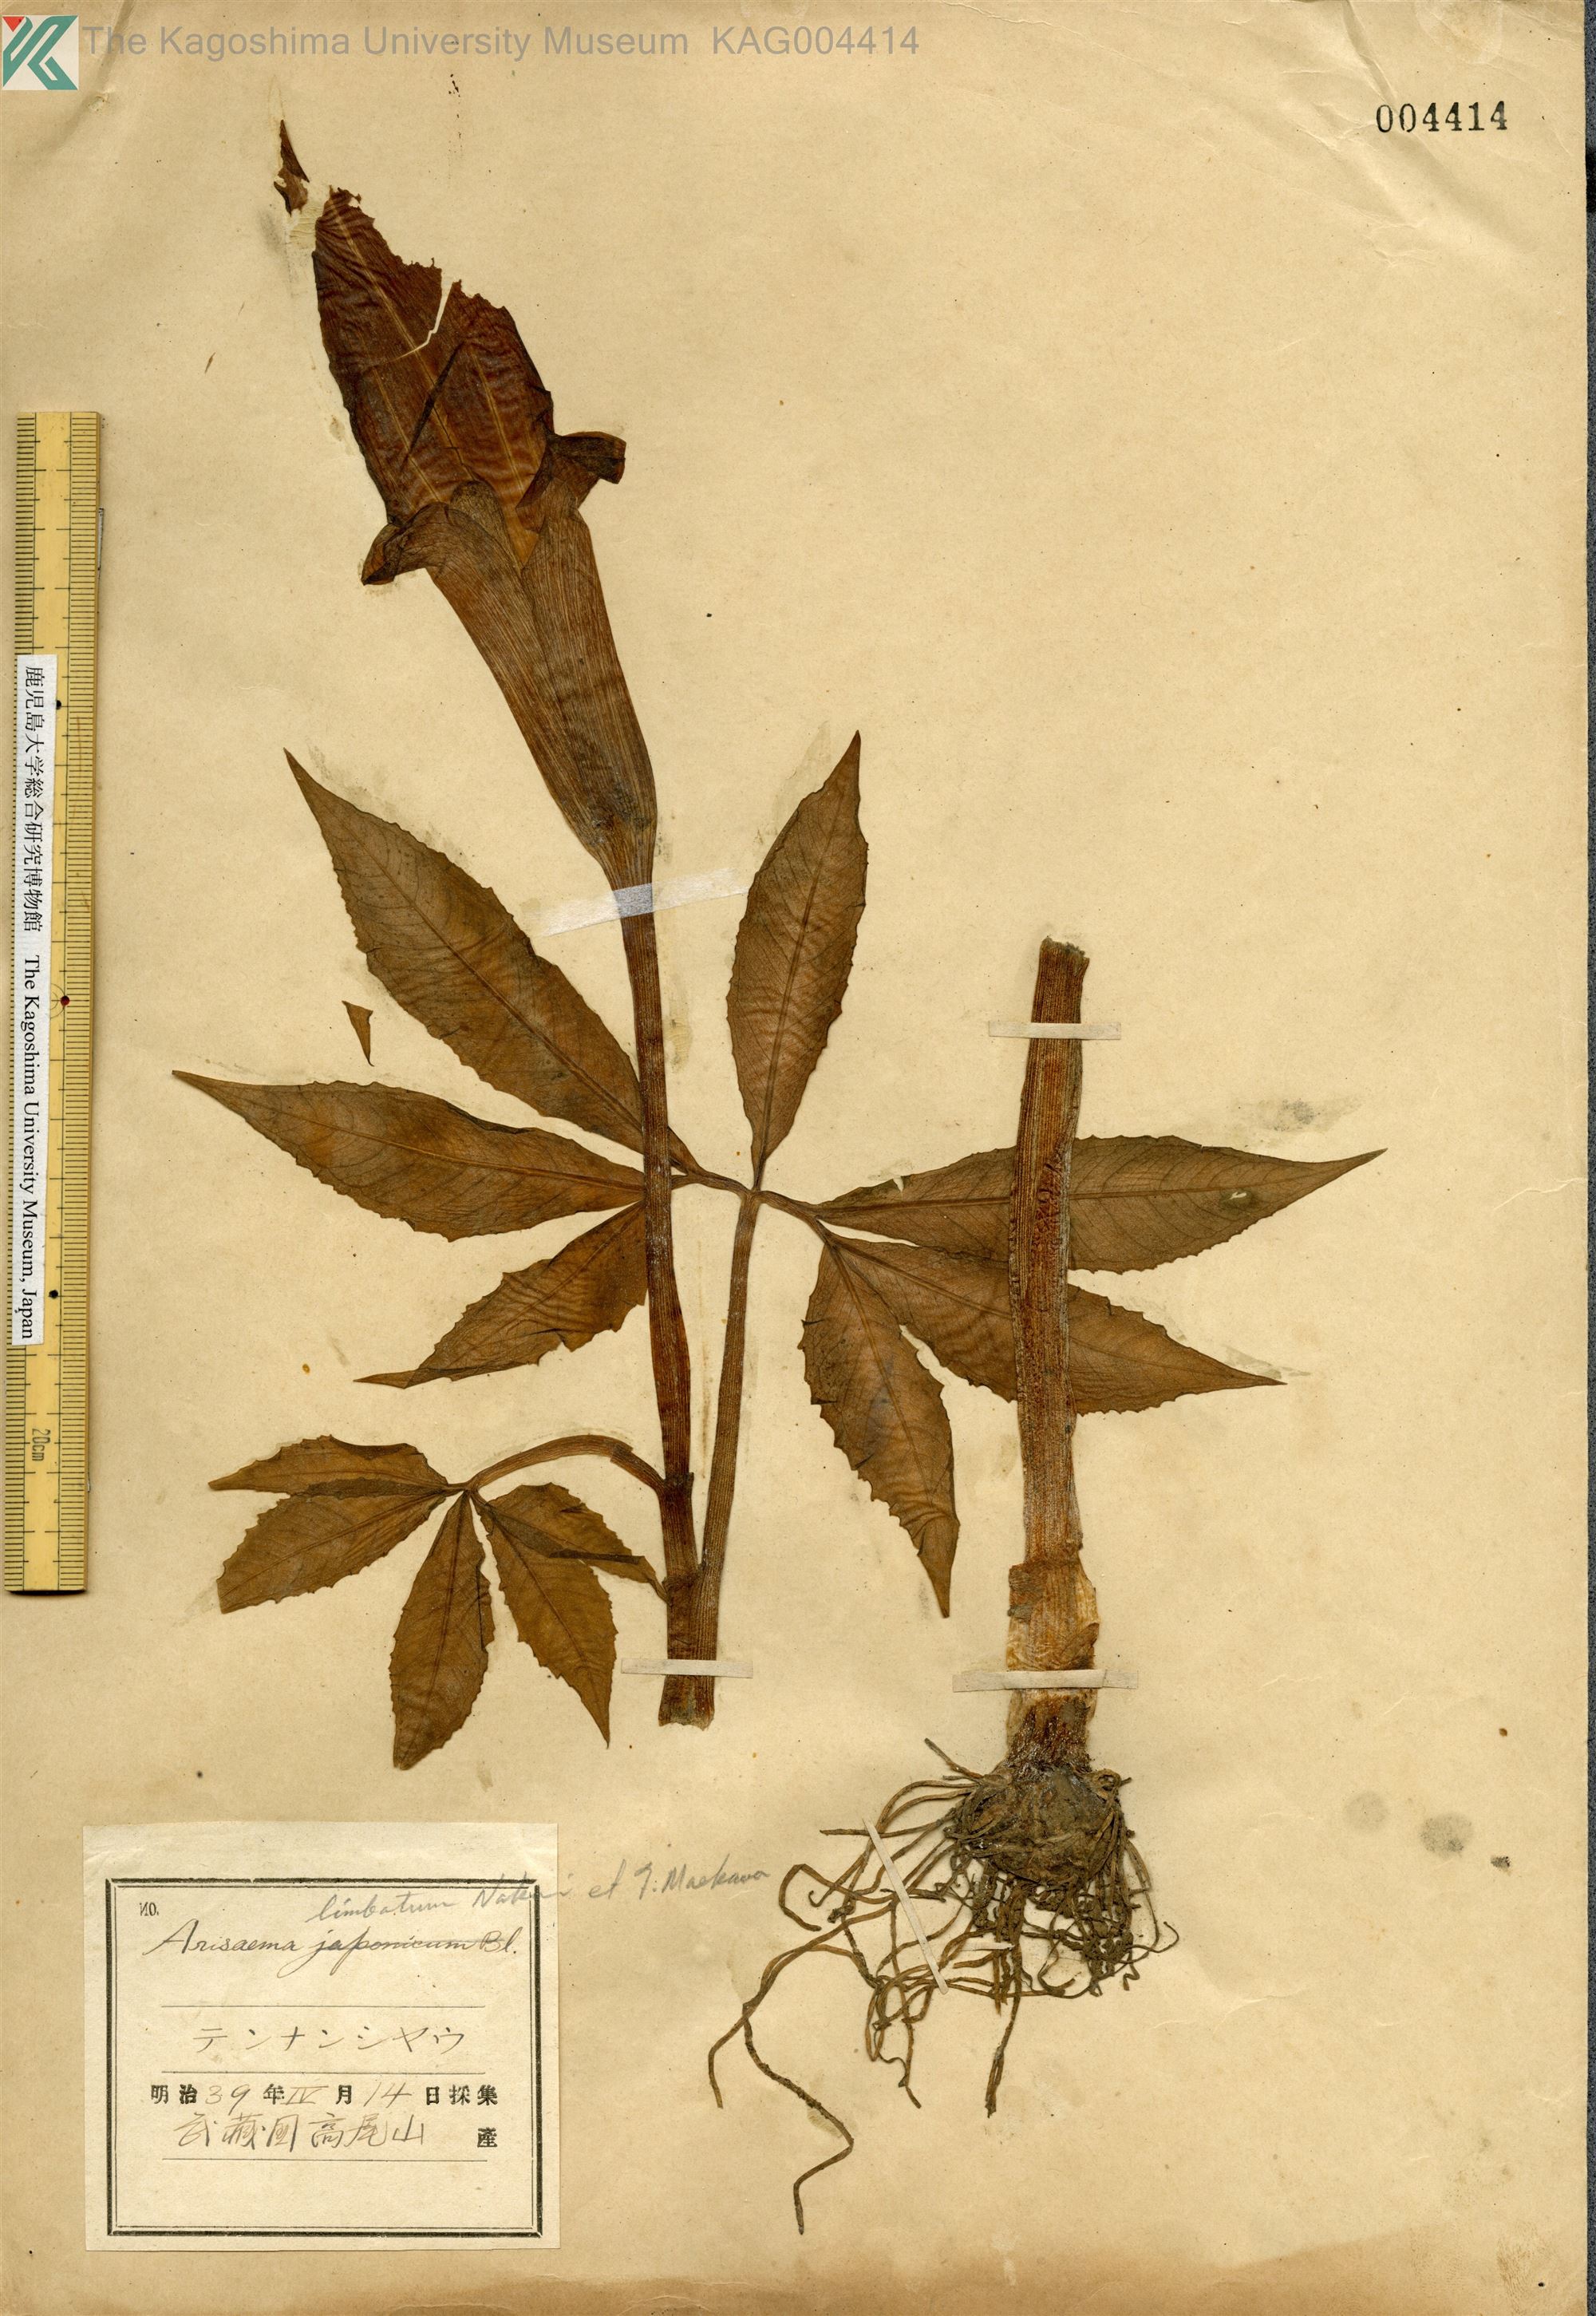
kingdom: Plantae
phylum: Tracheophyta
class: Liliopsida
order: Alismatales
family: Araceae
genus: Arisaema
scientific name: Arisaema consanguineum
